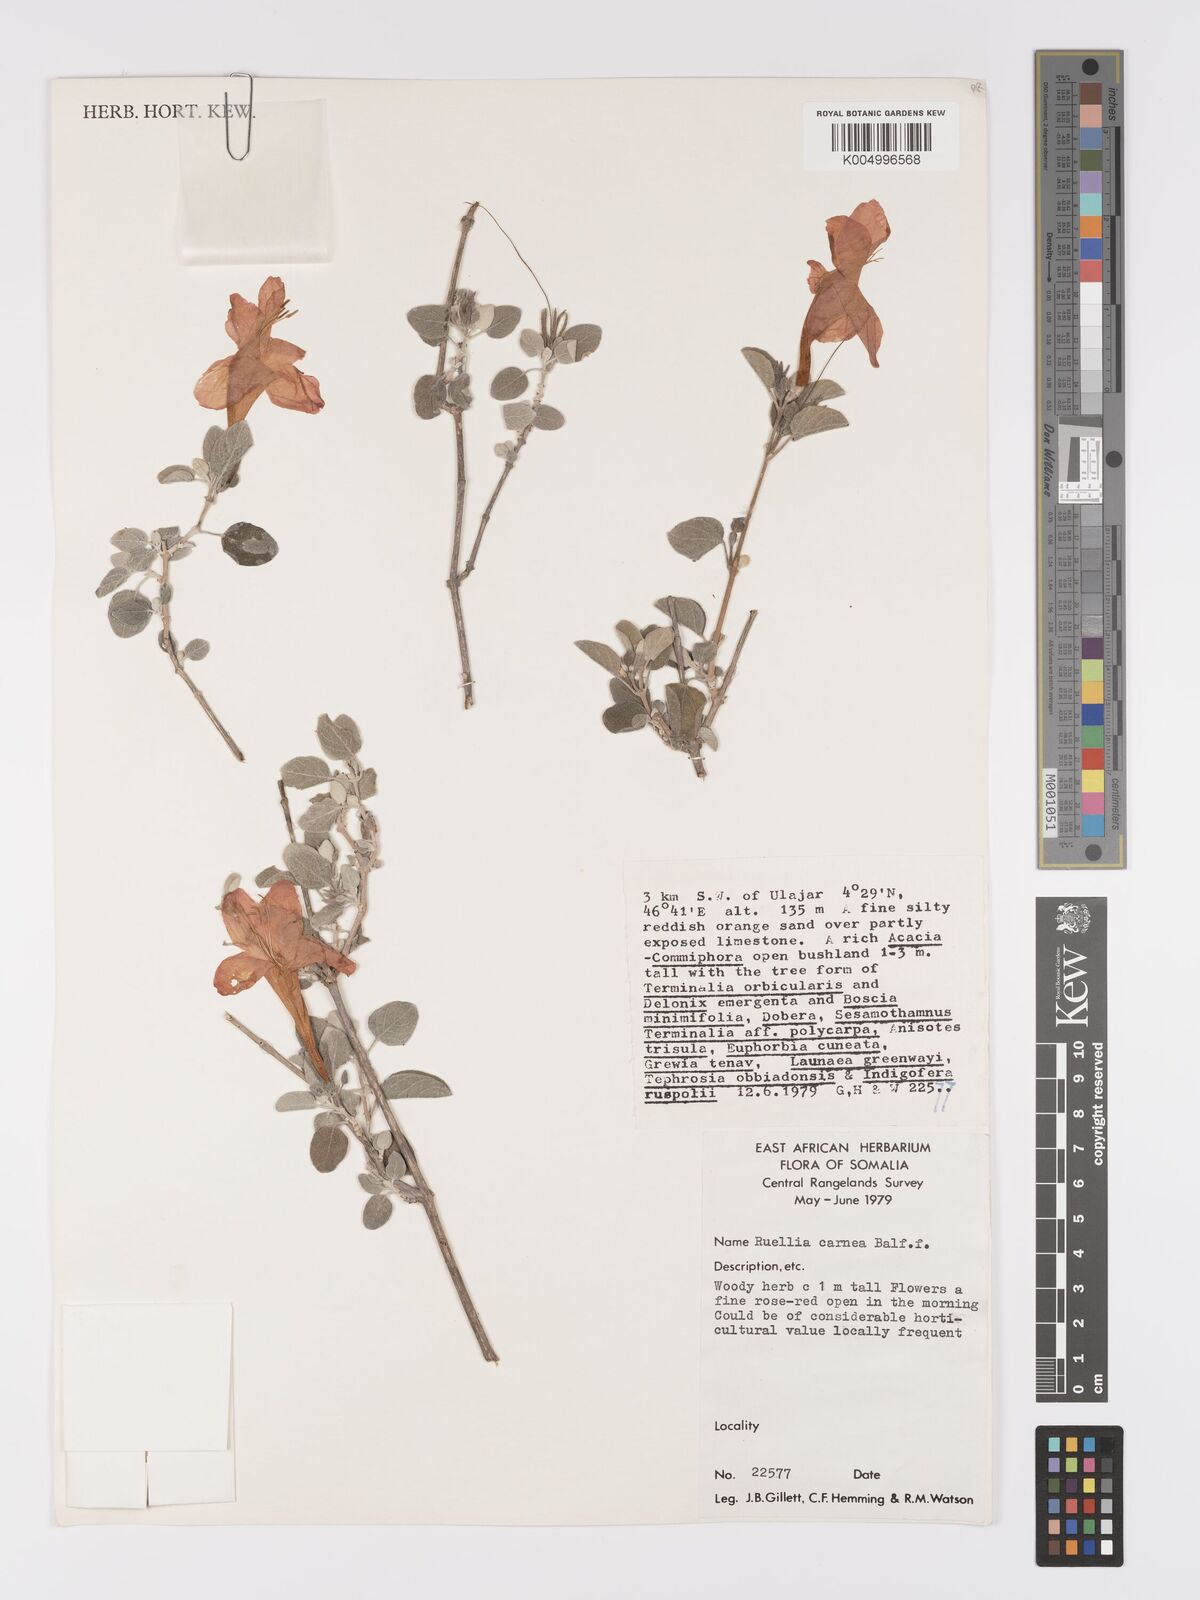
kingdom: Plantae
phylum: Tracheophyta
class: Magnoliopsida
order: Lamiales
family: Acanthaceae
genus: Ruellia
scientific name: Ruellia carnea
